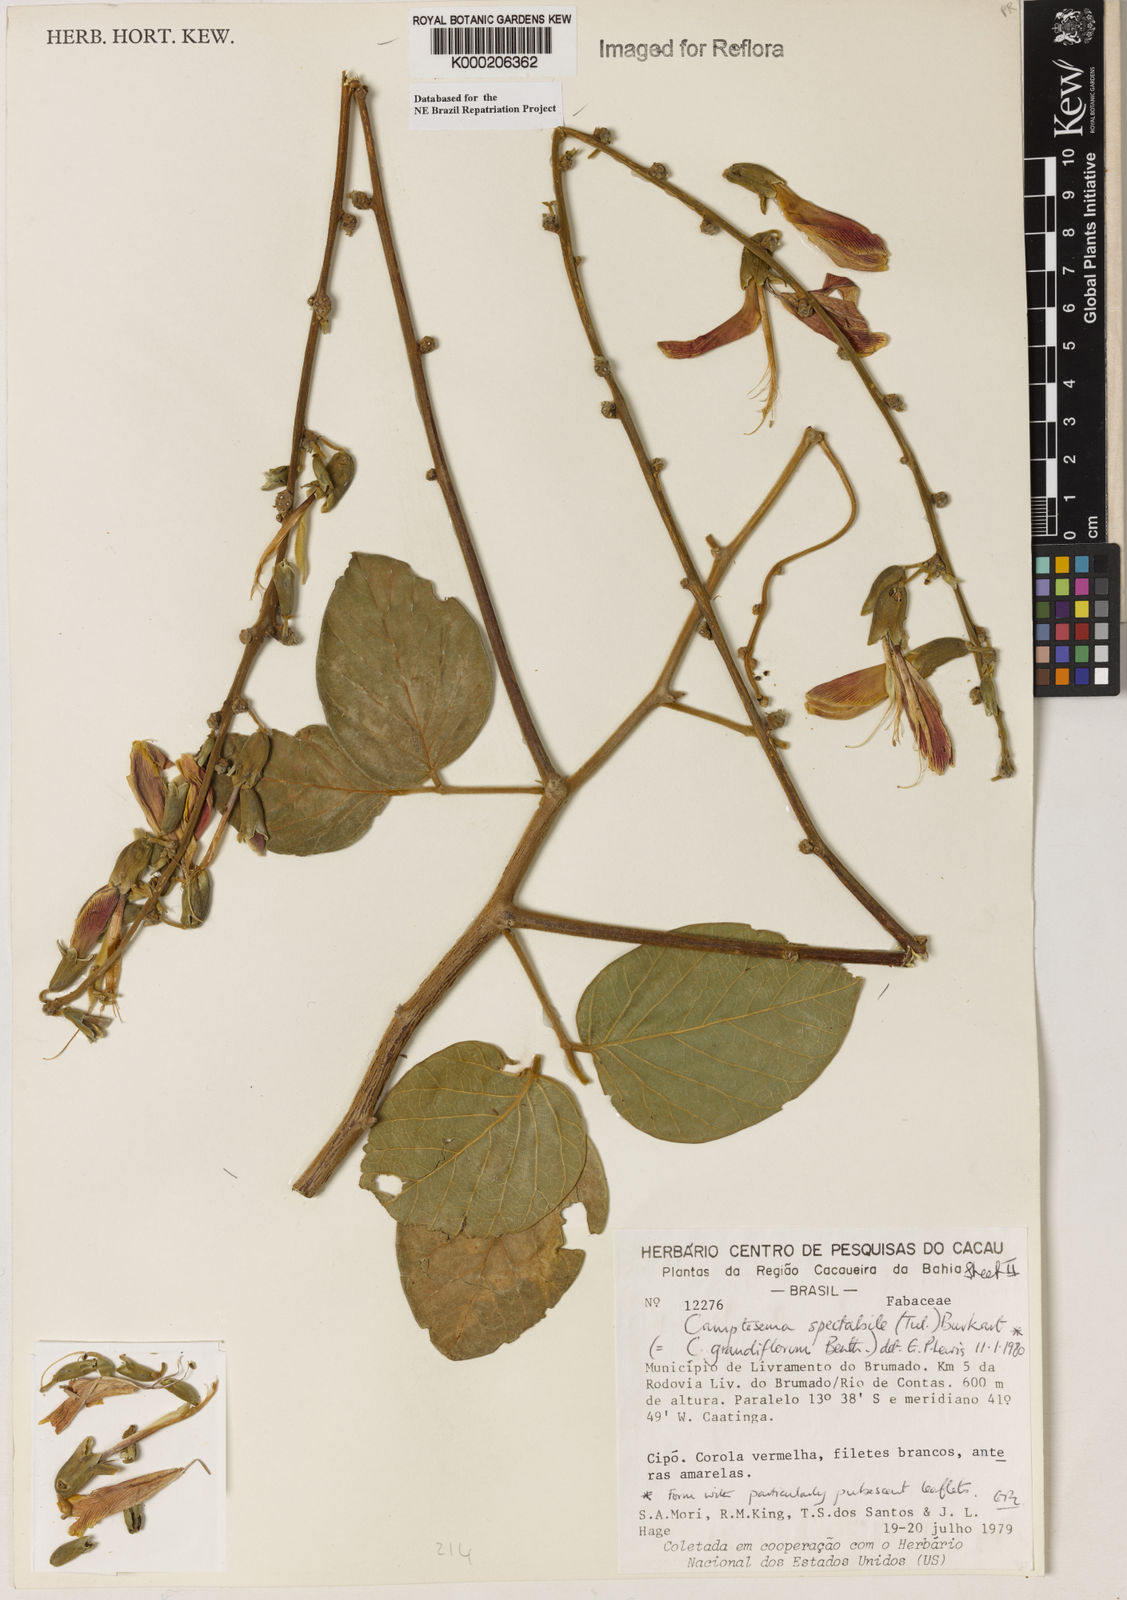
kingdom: Plantae
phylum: Tracheophyta
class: Magnoliopsida
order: Fabales
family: Fabaceae
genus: Camptosema
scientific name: Camptosema spectabile
